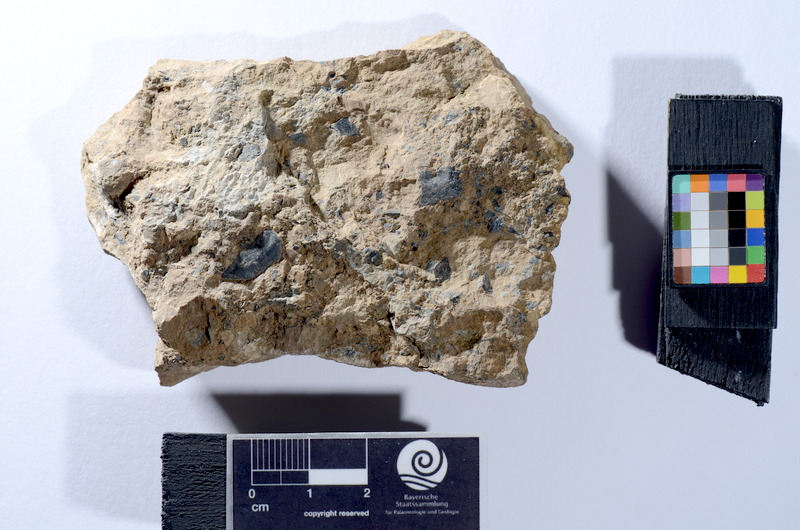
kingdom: Animalia
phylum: Chordata
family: Palaeoniscidae
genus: Gyrolepis
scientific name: Gyrolepis
